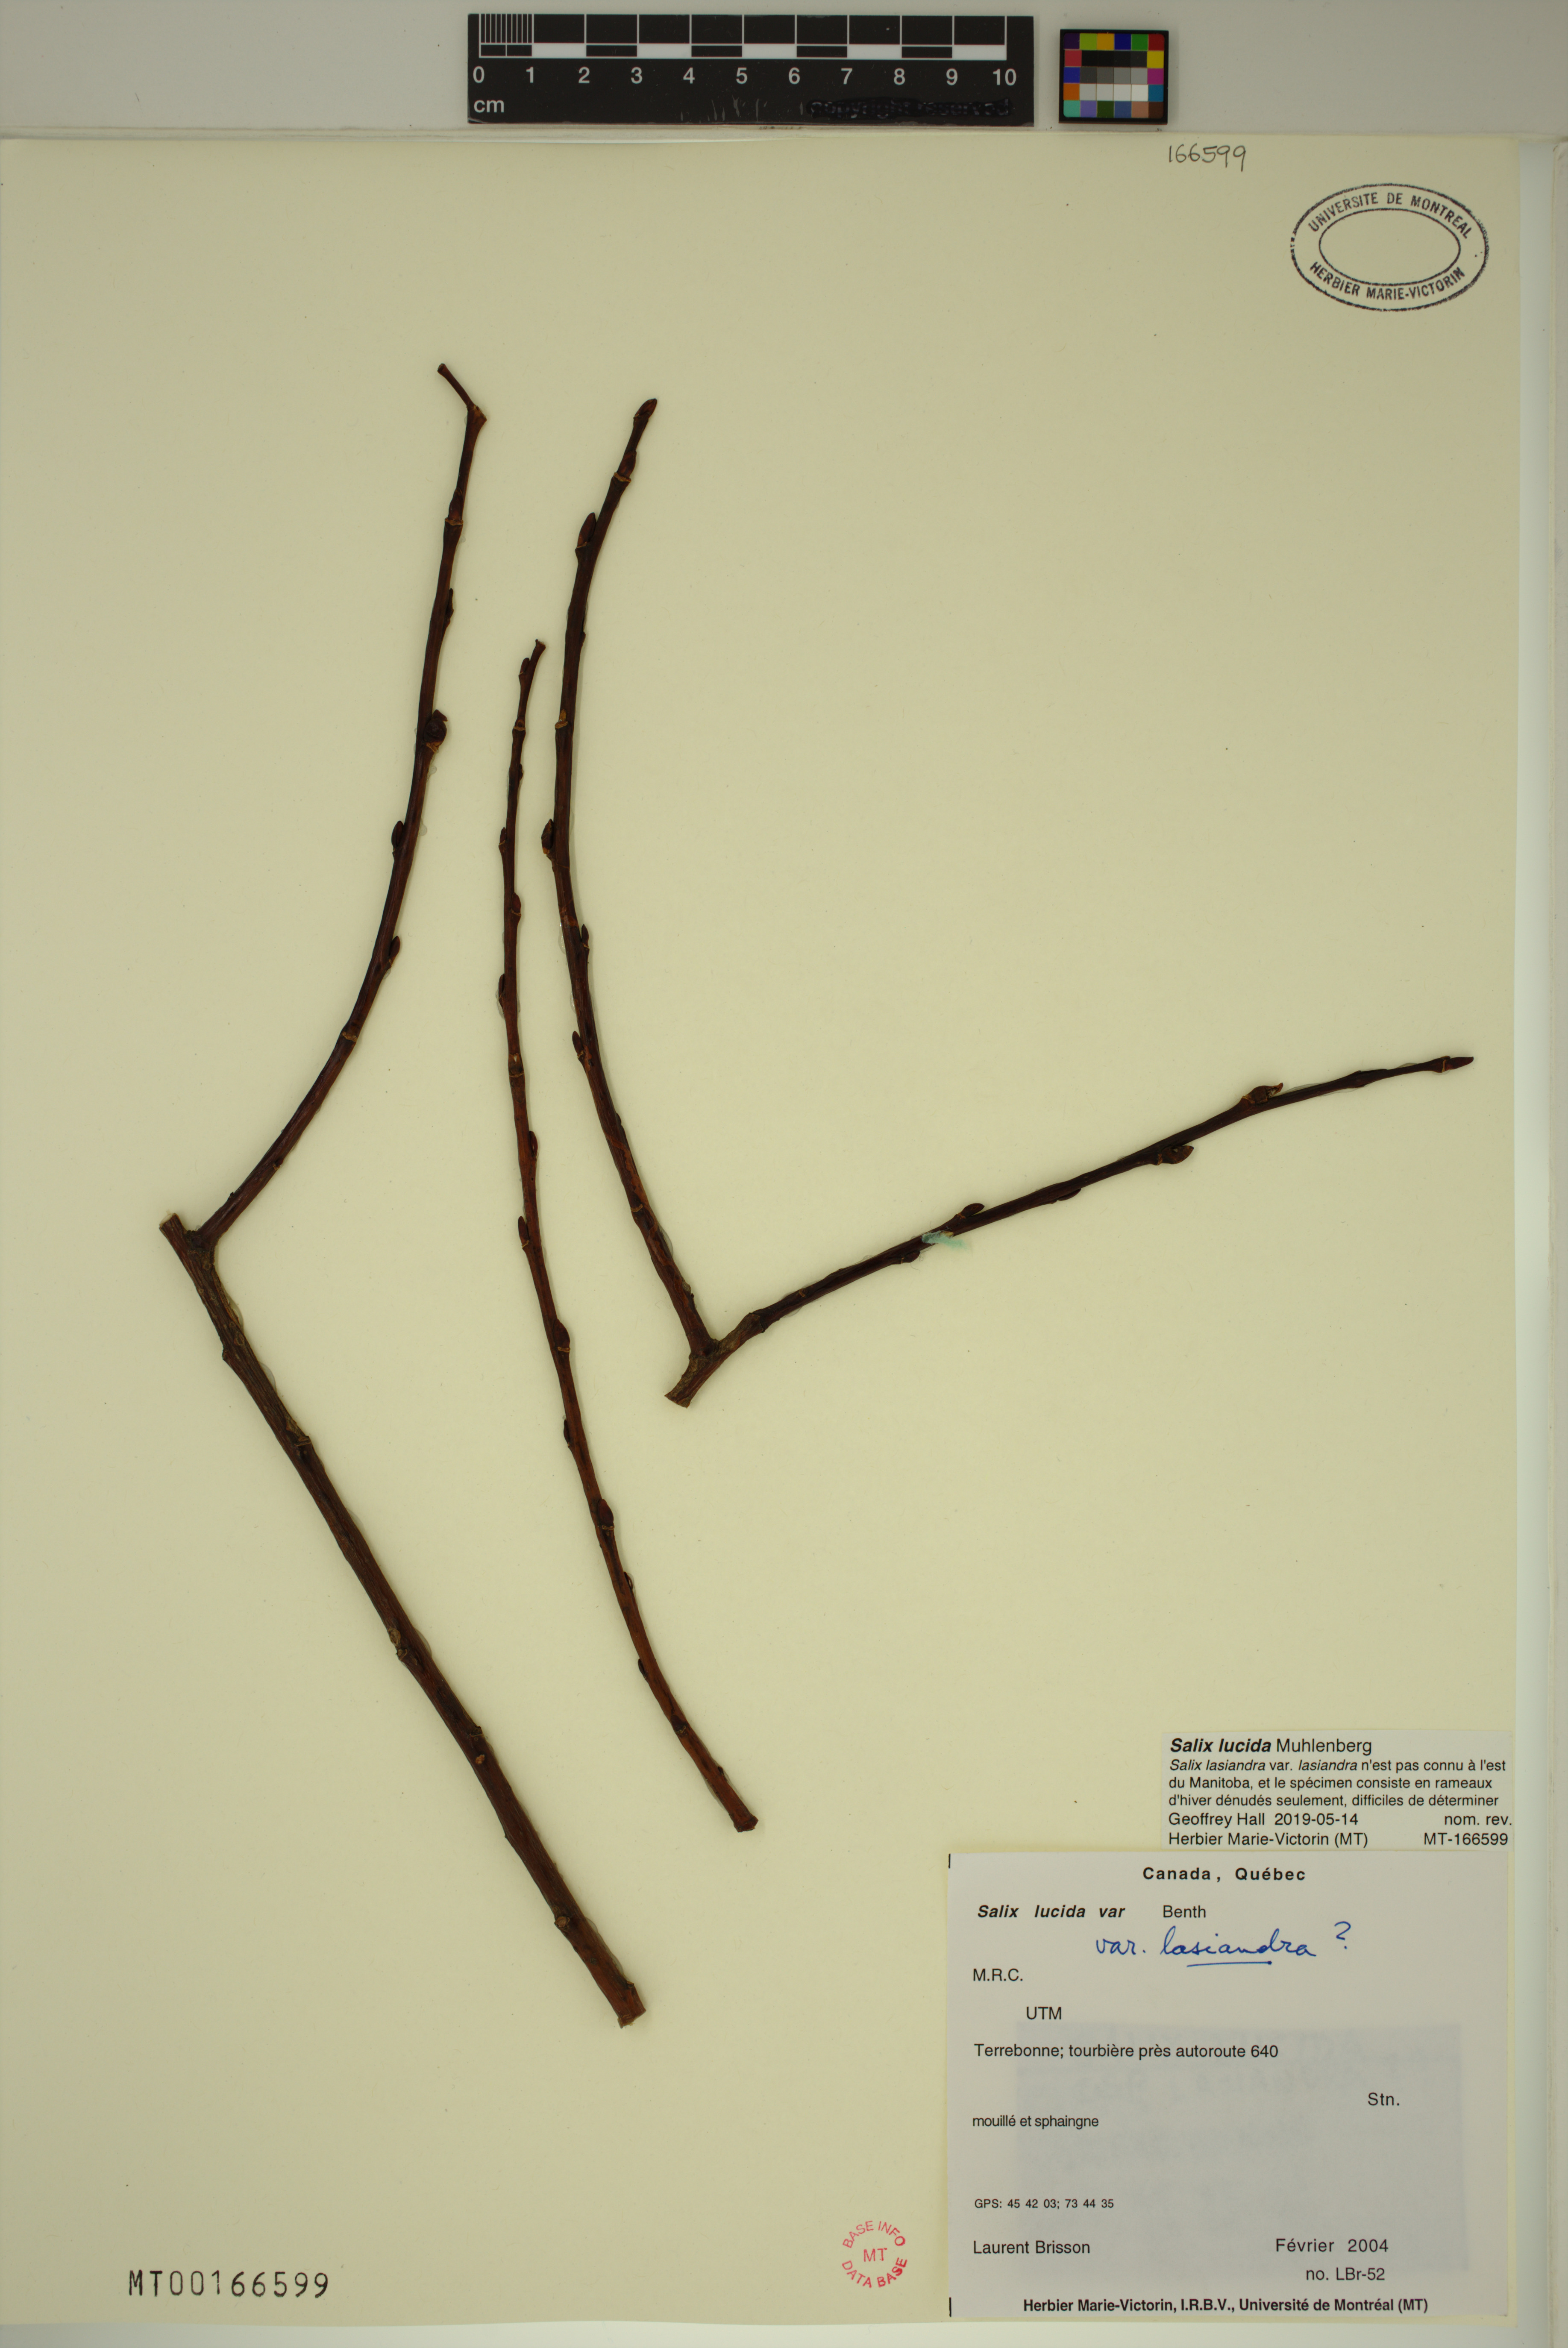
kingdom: Plantae
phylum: Tracheophyta
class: Magnoliopsida
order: Malpighiales
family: Salicaceae
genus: Salix
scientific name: Salix lucida
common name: Shining willow
